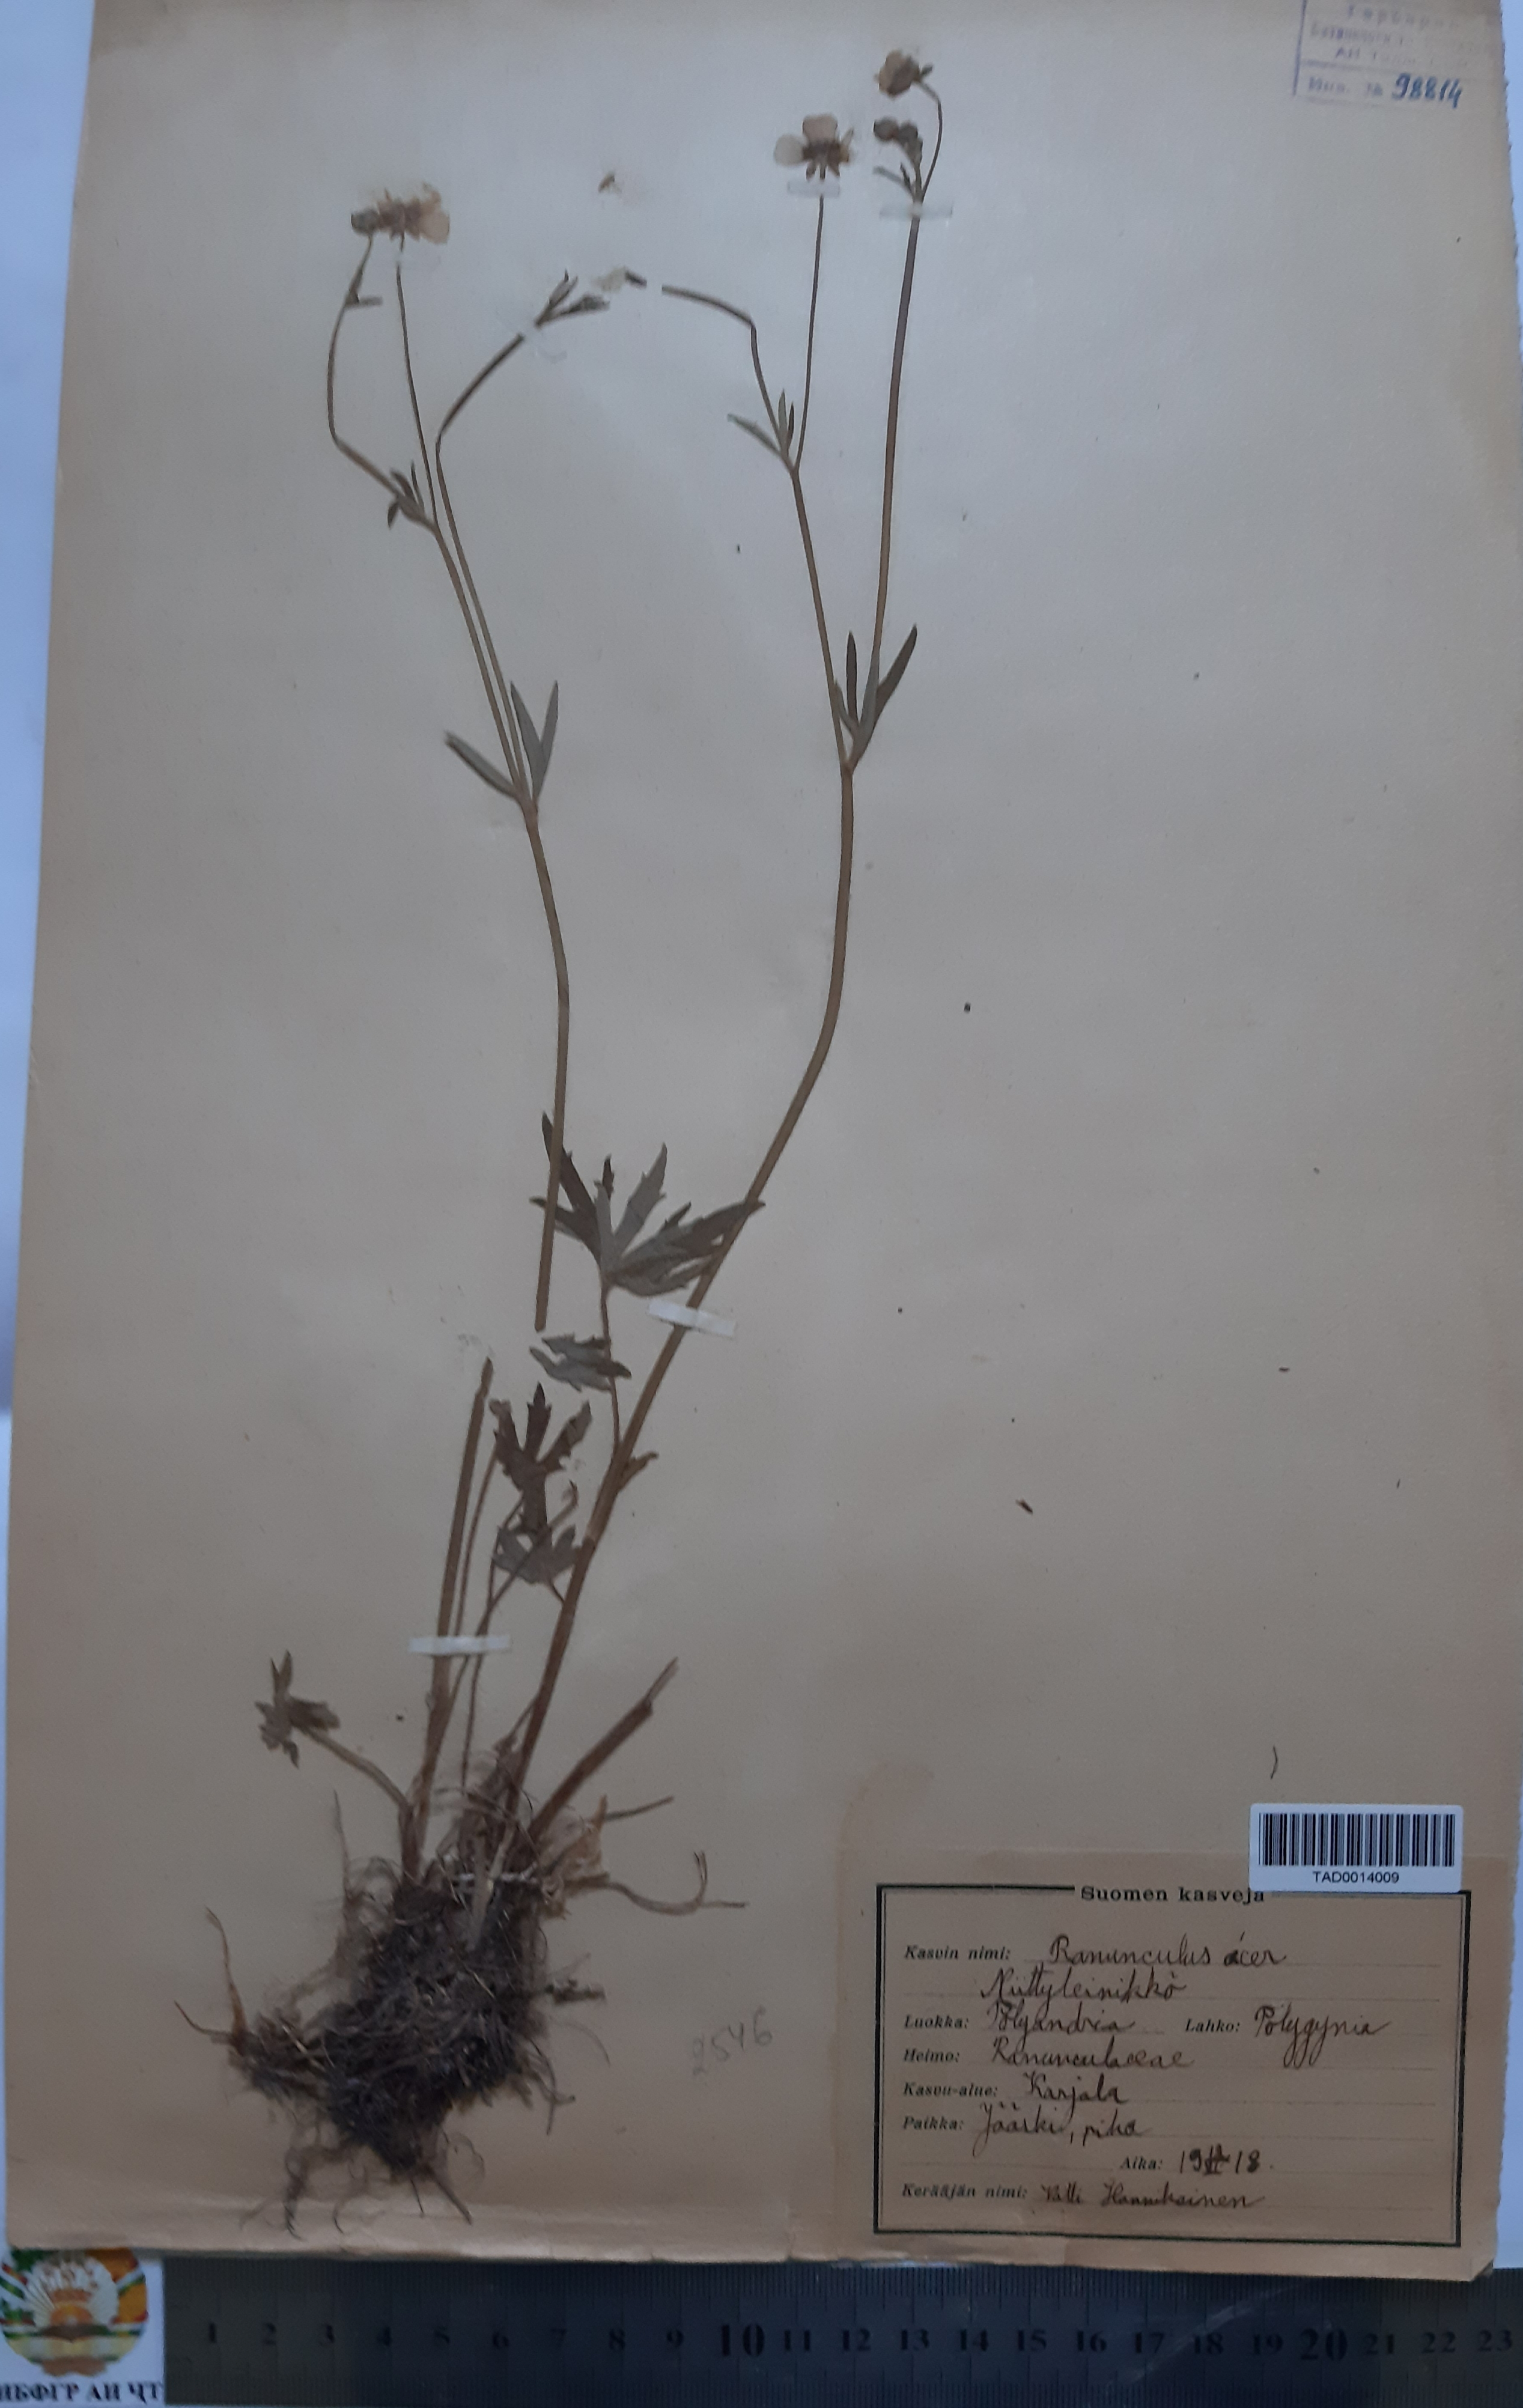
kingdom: Plantae
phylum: Tracheophyta
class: Magnoliopsida
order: Ranunculales
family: Ranunculaceae
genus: Ranunculus
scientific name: Ranunculus acris
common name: Meadow buttercup
